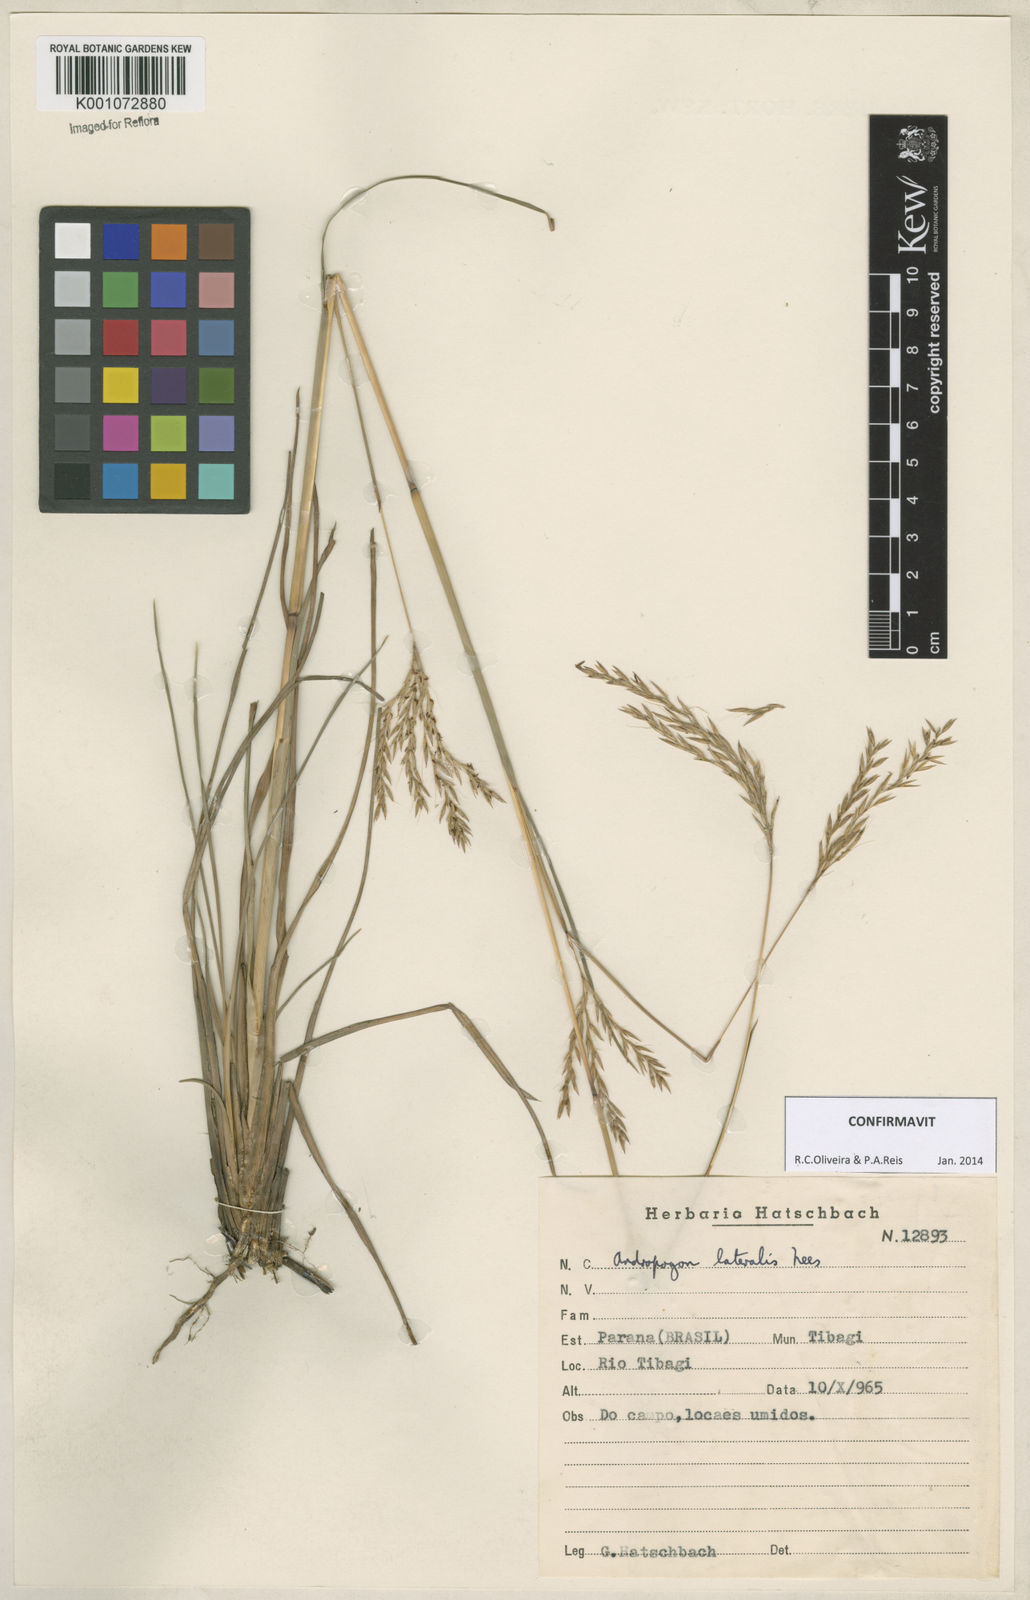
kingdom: Plantae
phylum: Tracheophyta
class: Liliopsida
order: Poales
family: Poaceae
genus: Andropogon
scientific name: Andropogon lateralis
